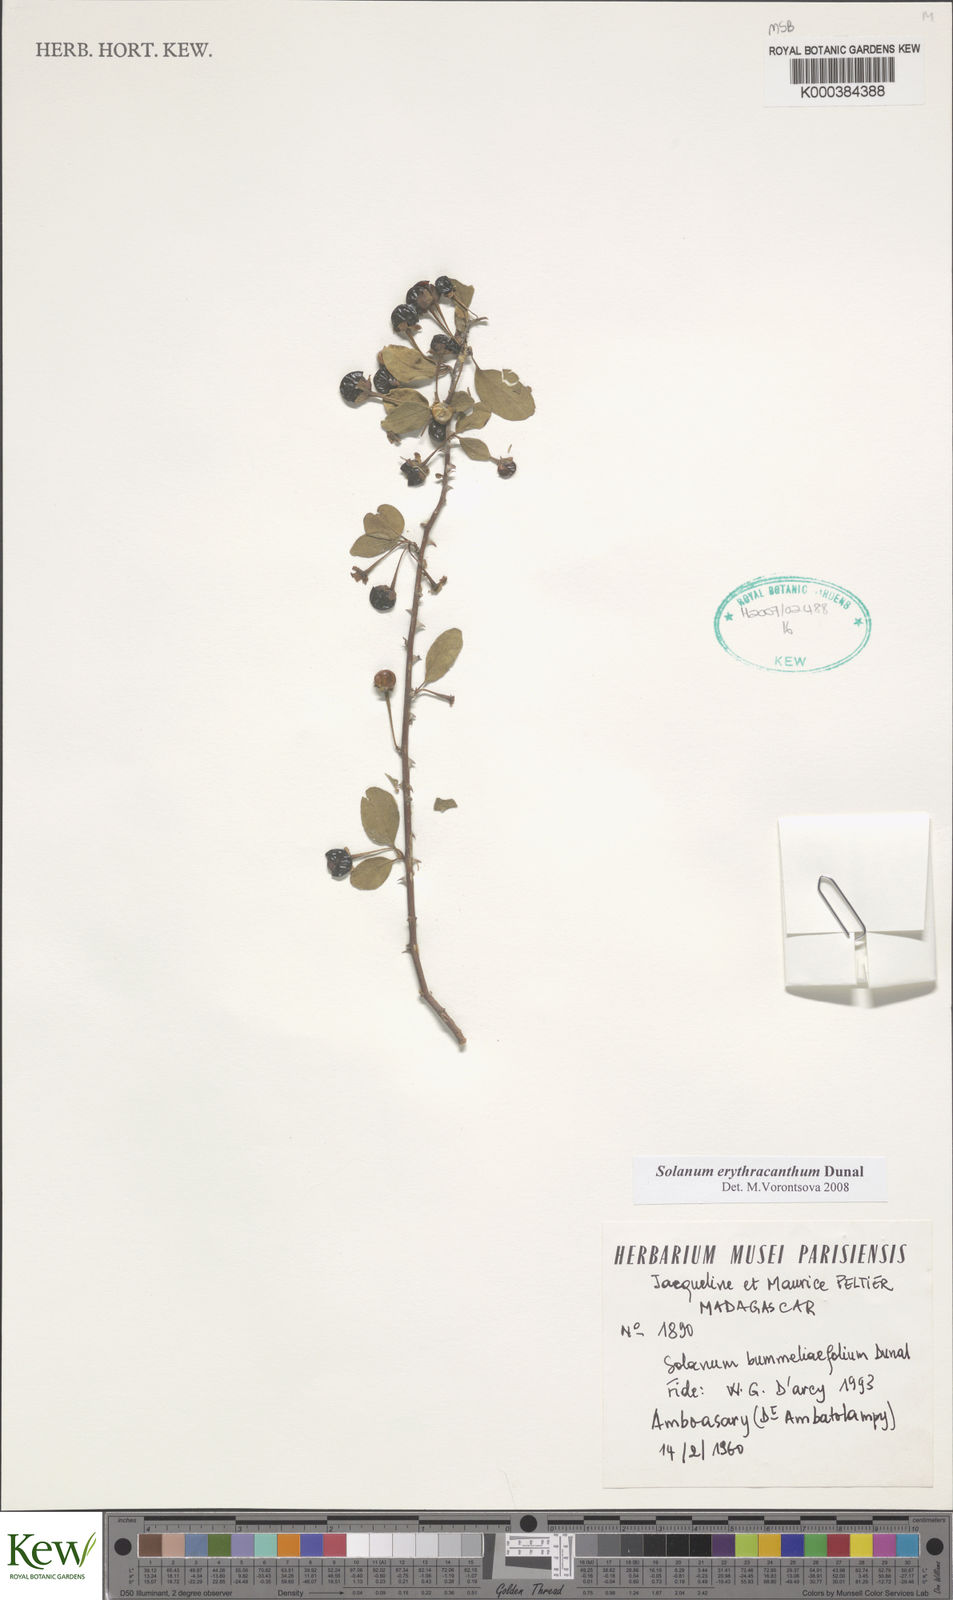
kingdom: Plantae
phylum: Tracheophyta
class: Magnoliopsida
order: Solanales
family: Solanaceae
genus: Solanum
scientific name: Solanum bumeliifolium
